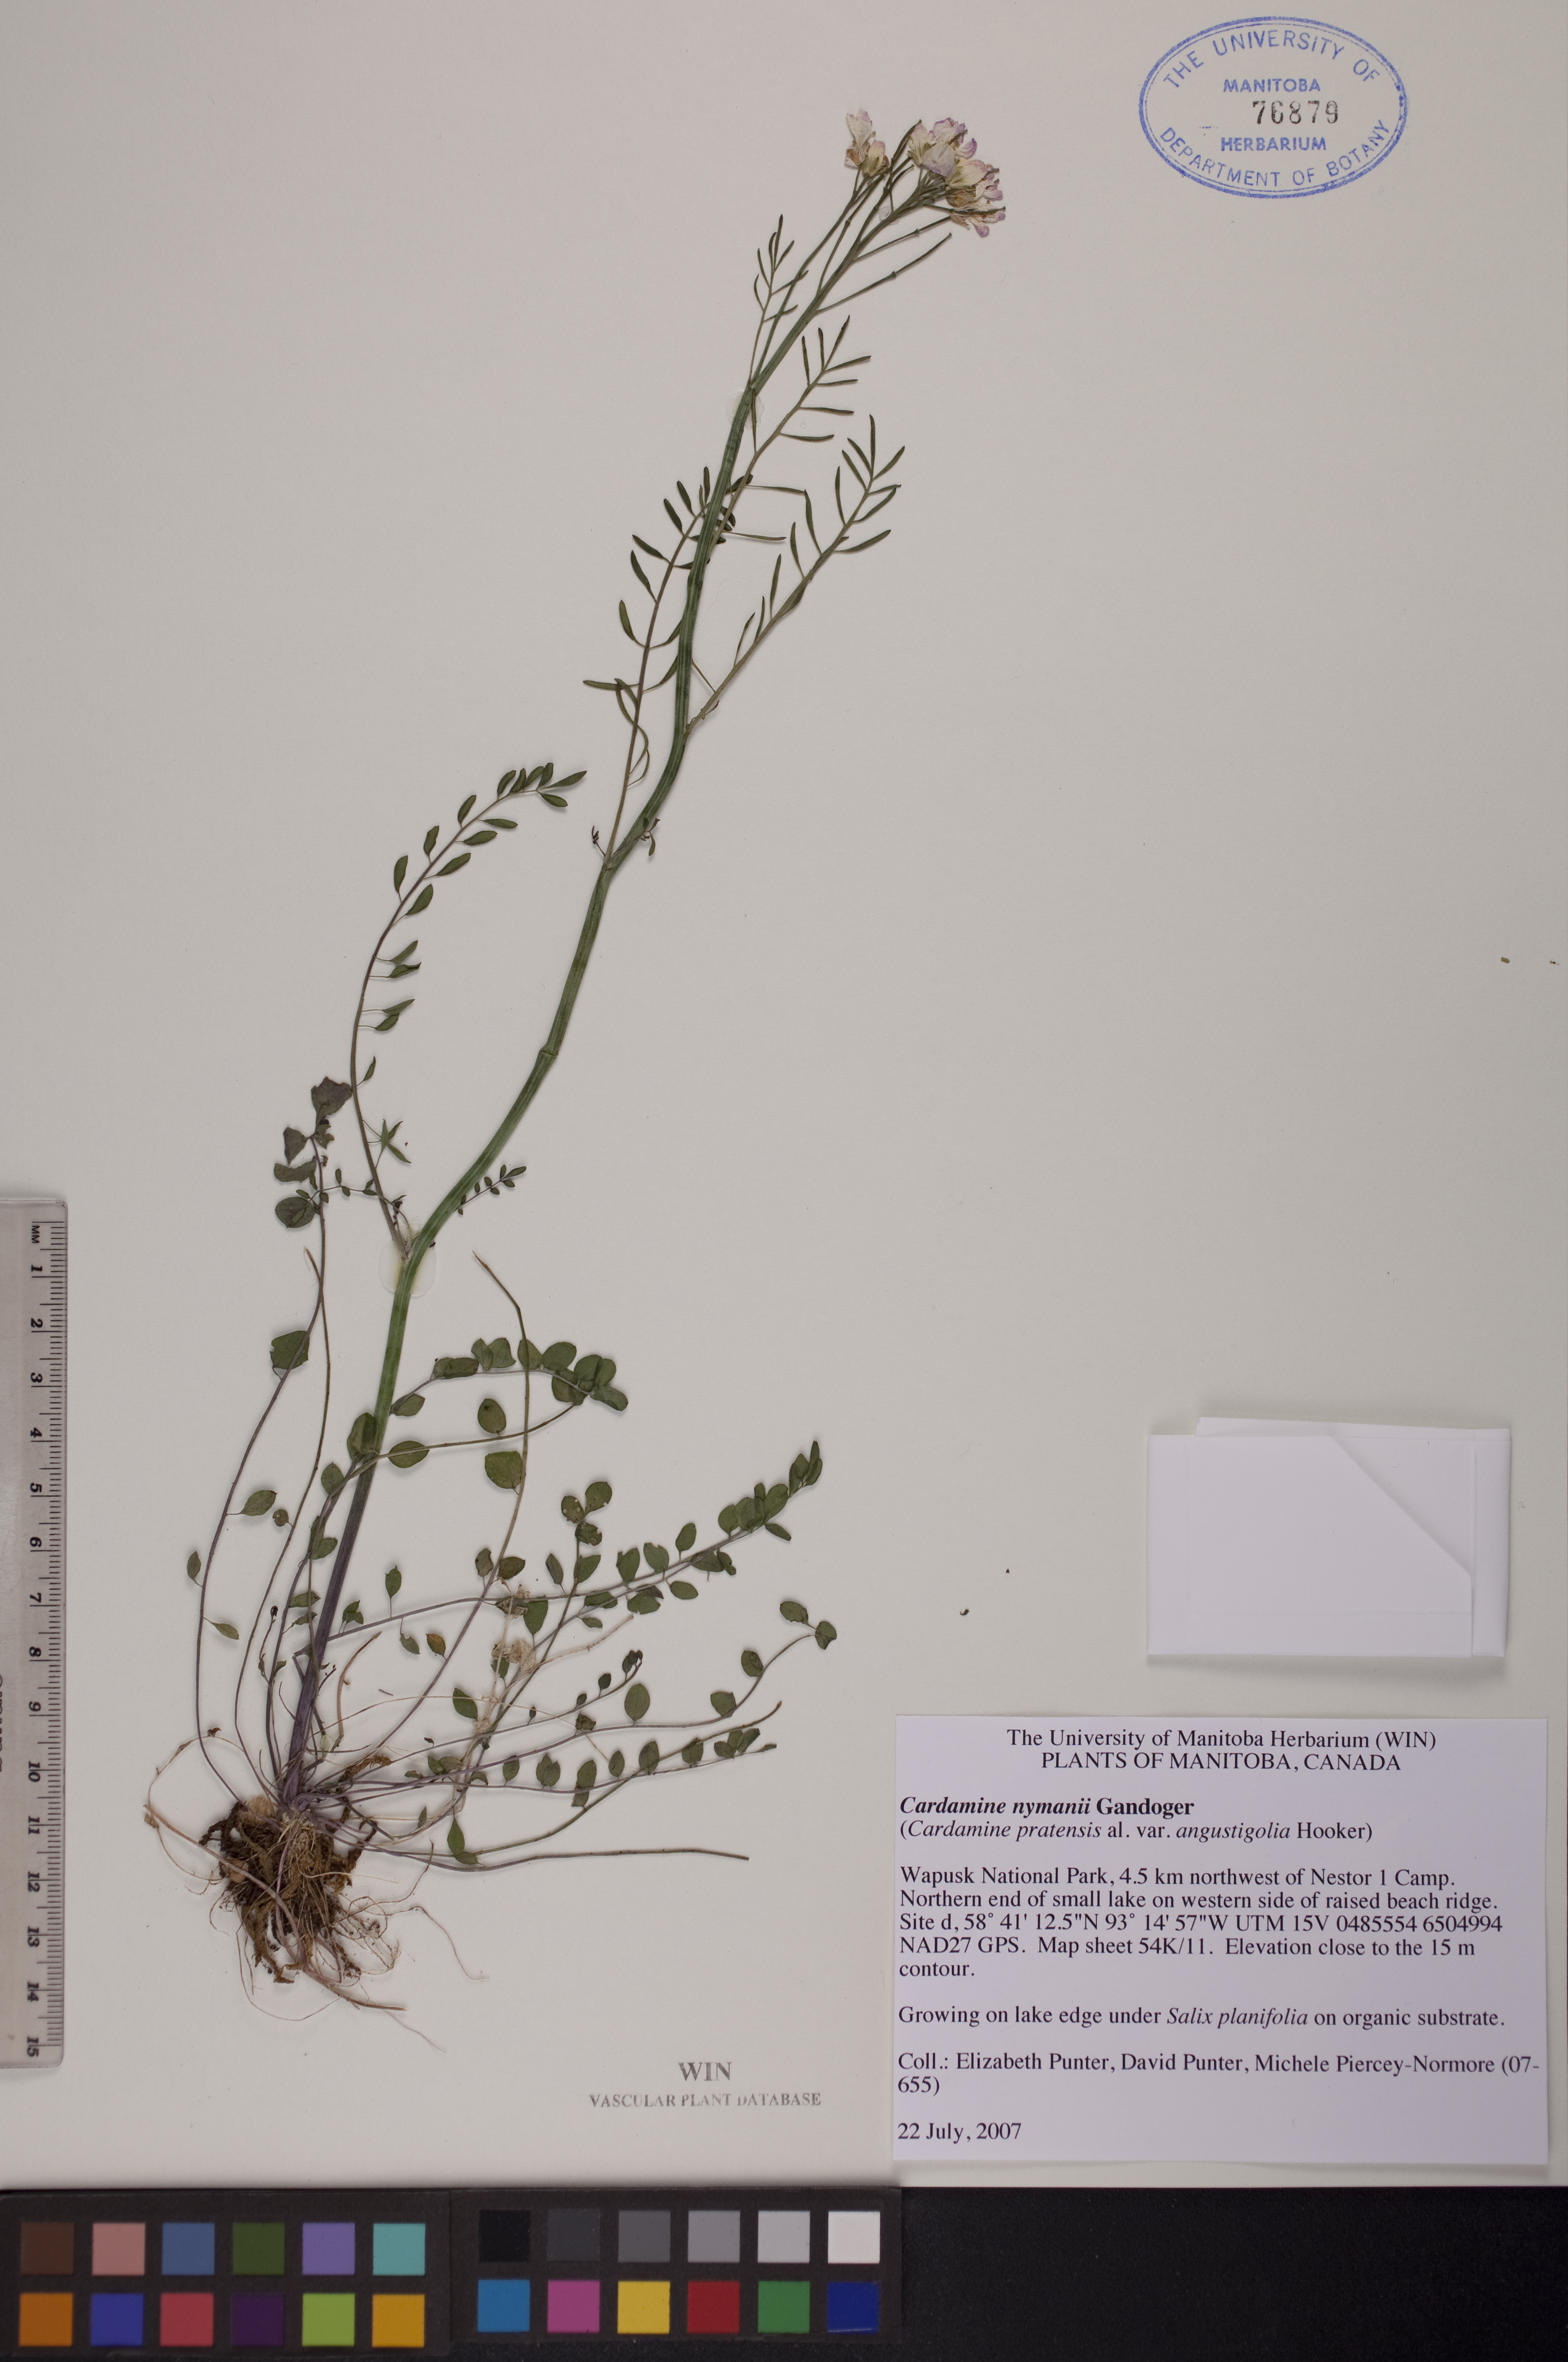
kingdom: Plantae
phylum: Tracheophyta
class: Magnoliopsida
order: Brassicales
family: Brassicaceae
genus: Cardamine
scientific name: Cardamine nymanii
